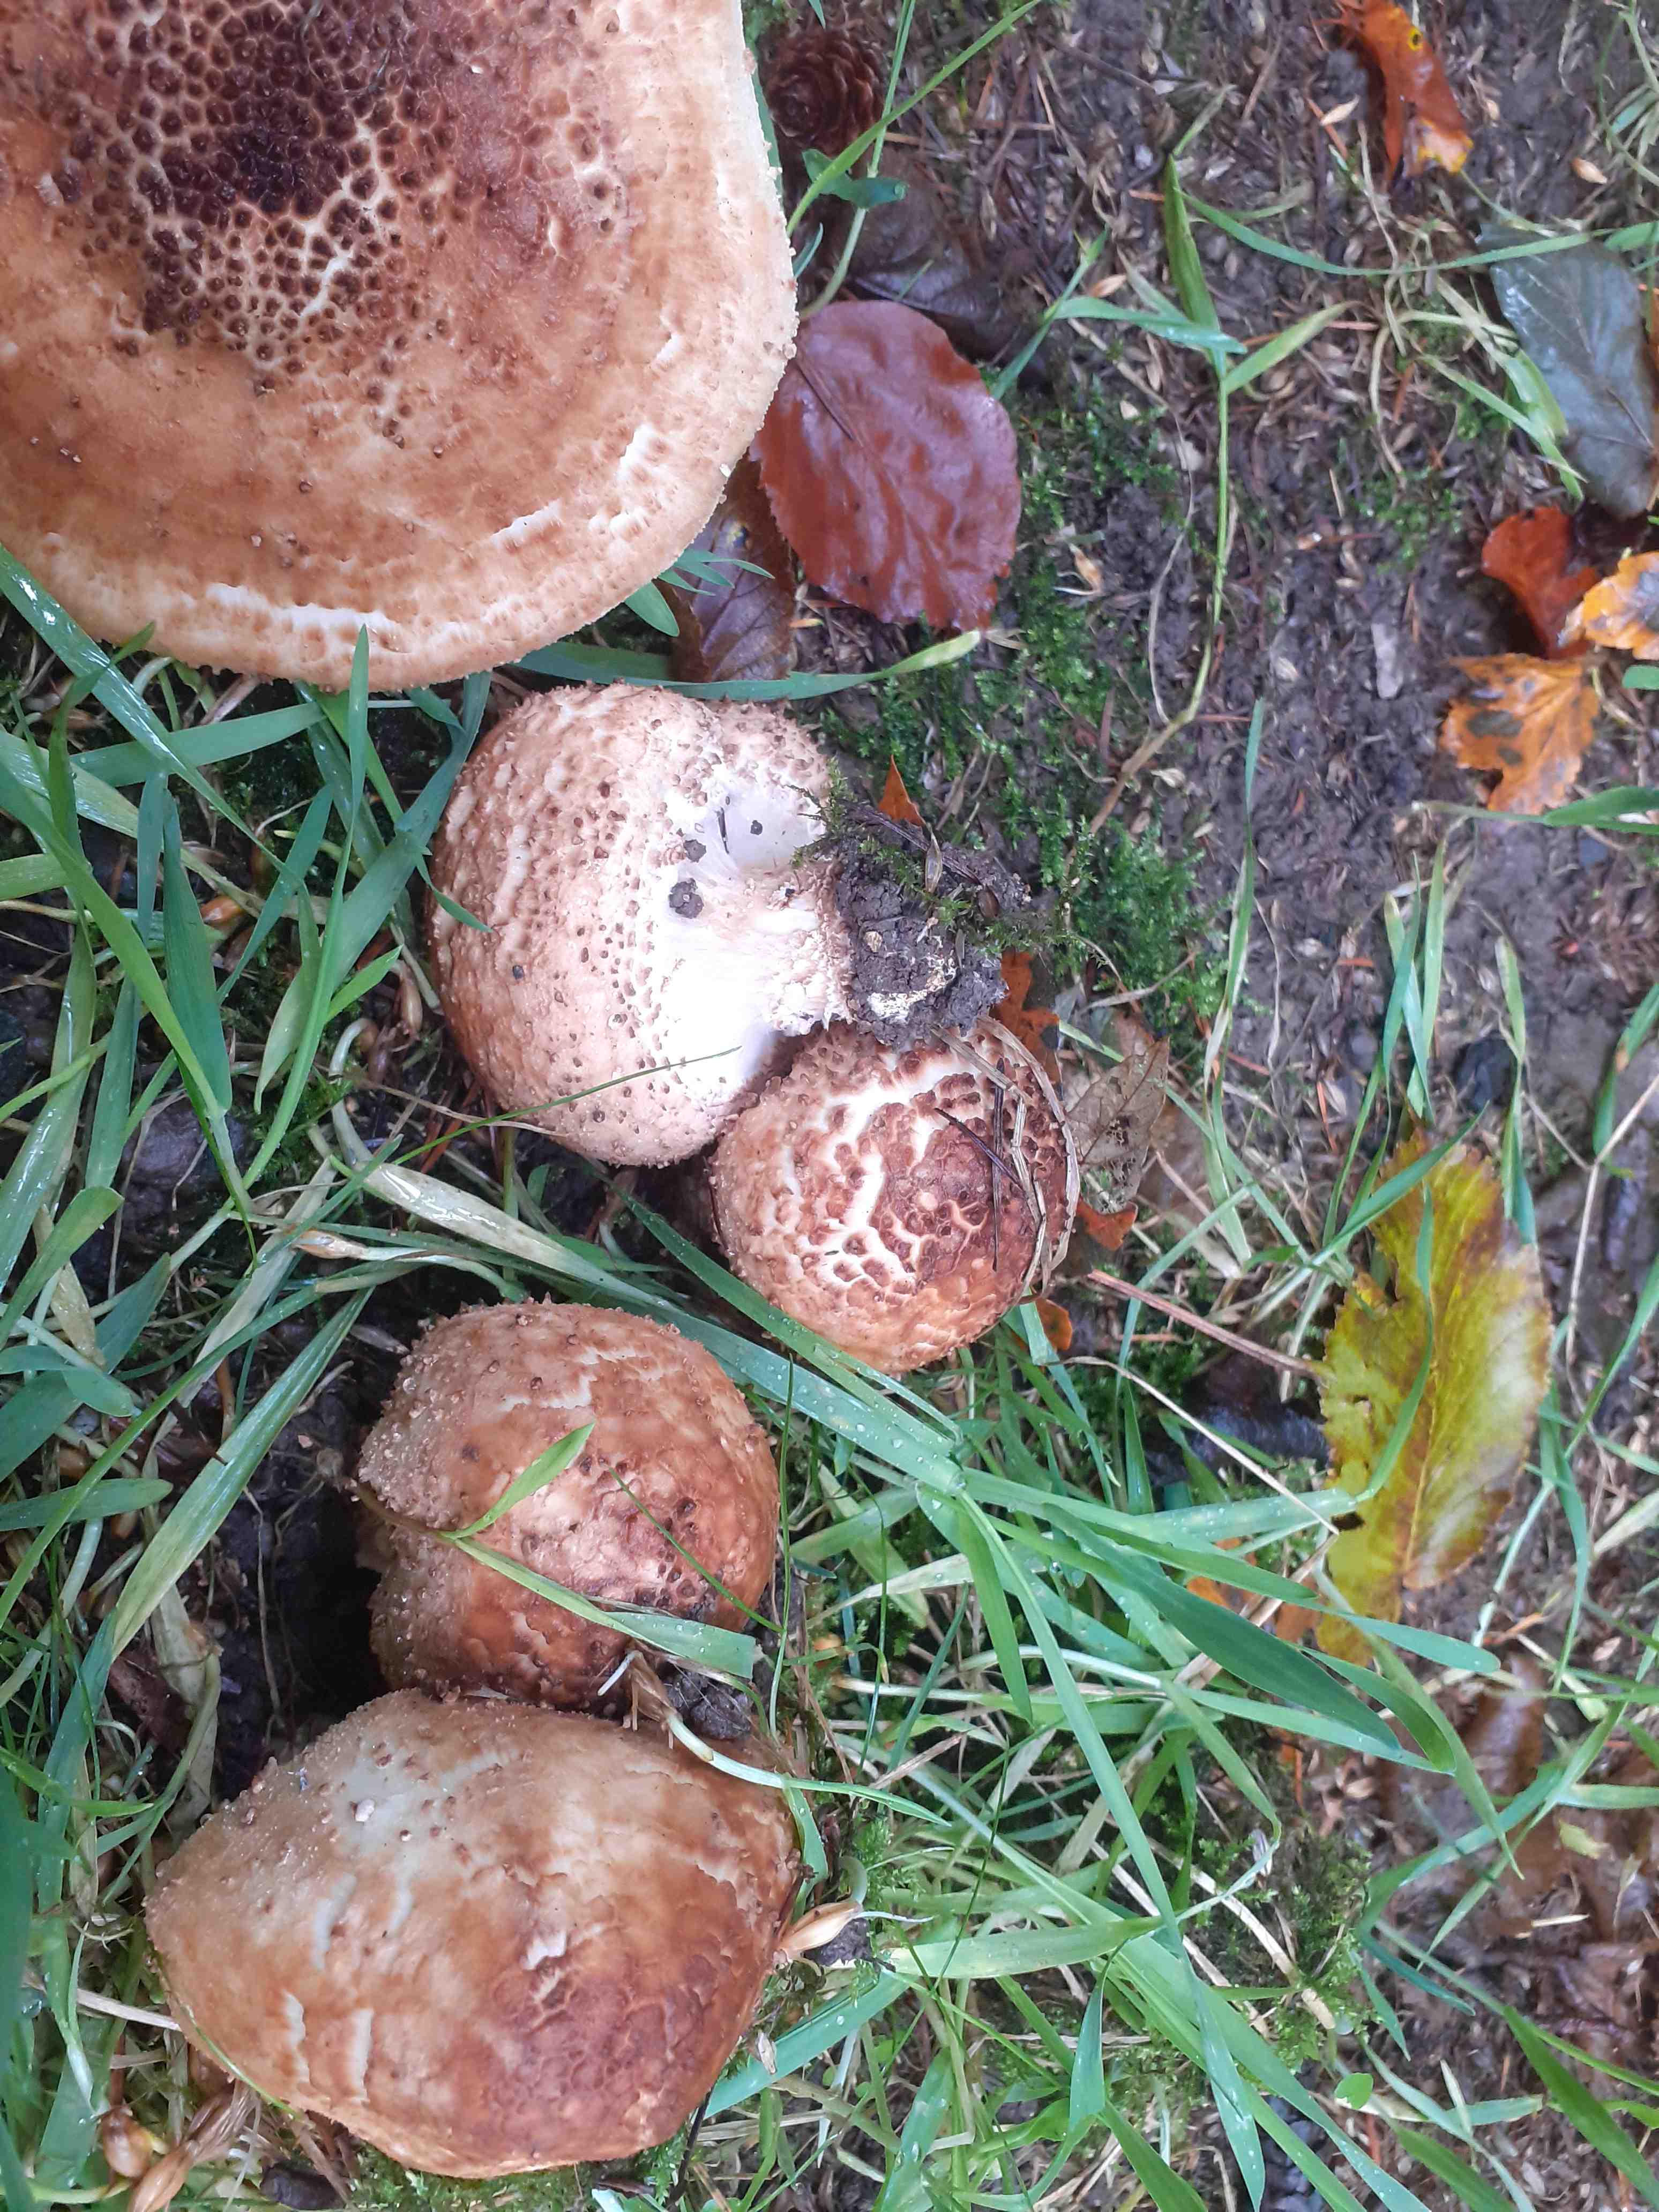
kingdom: Fungi
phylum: Basidiomycota
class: Agaricomycetes
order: Agaricales
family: Agaricaceae
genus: Echinoderma
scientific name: Echinoderma asperum
